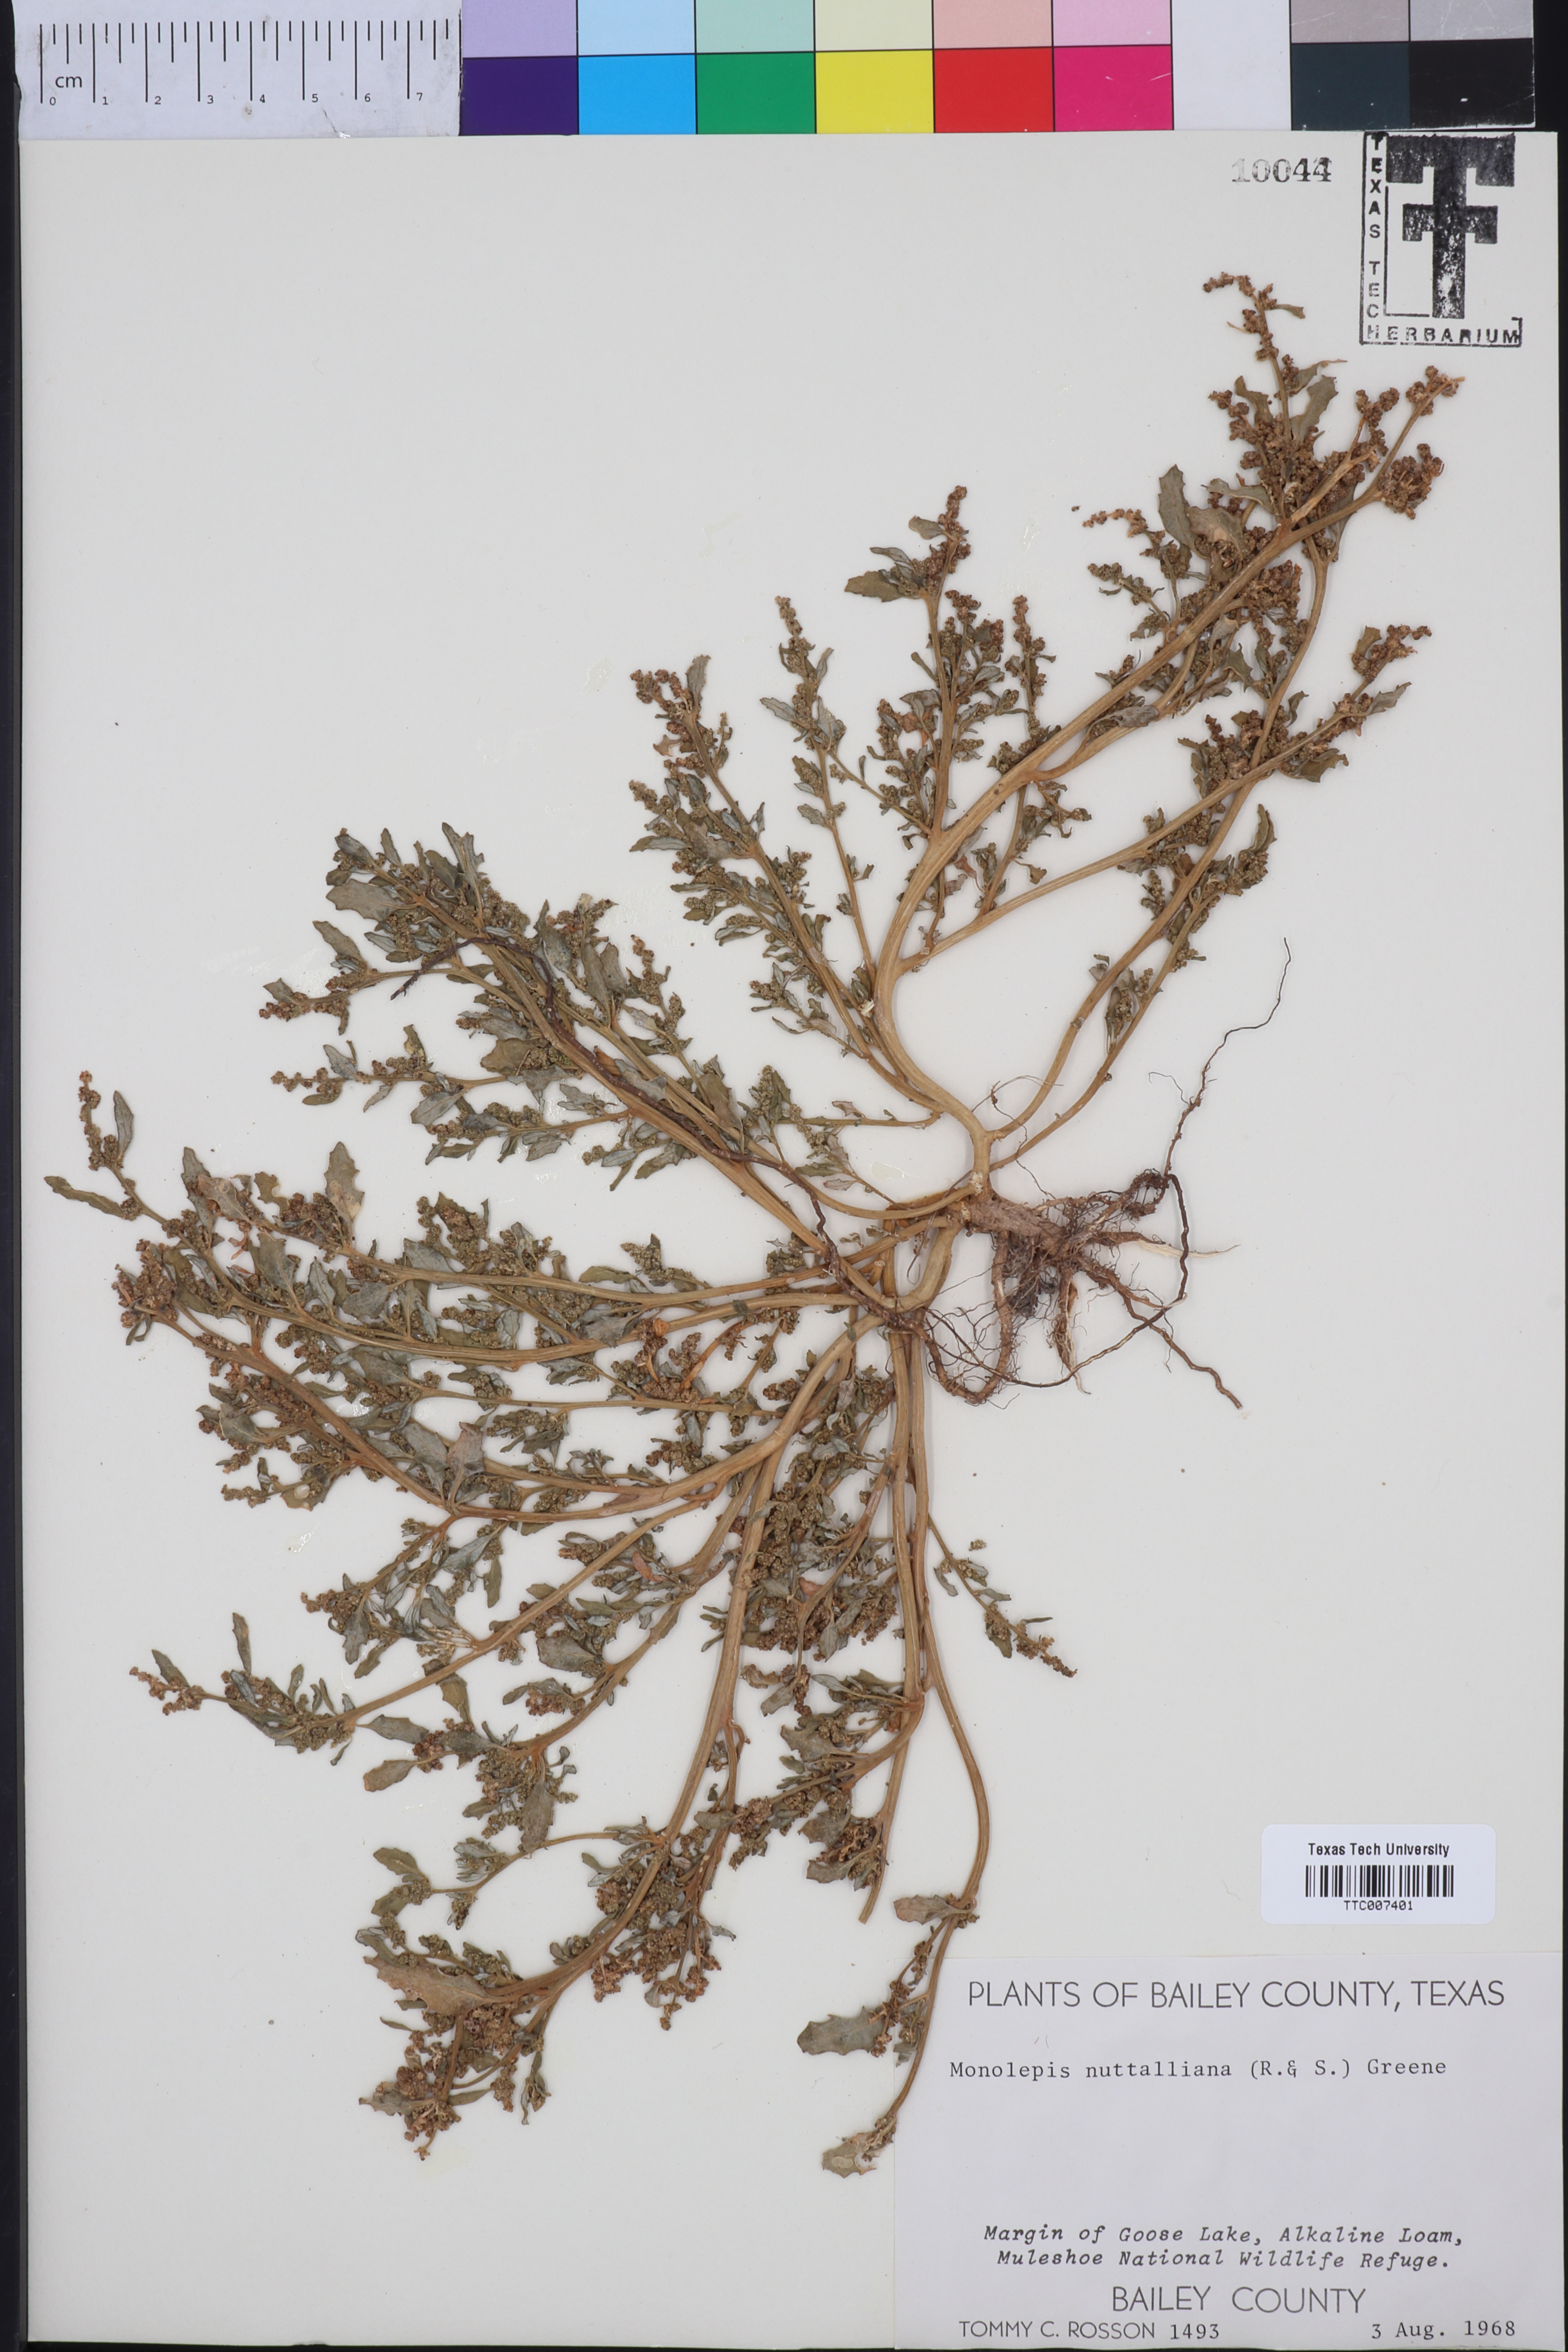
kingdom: Plantae
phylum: Tracheophyta
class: Magnoliopsida
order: Caryophyllales
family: Amaranthaceae
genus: Blitum
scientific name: Blitum nuttallianum
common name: Poverty-weed
